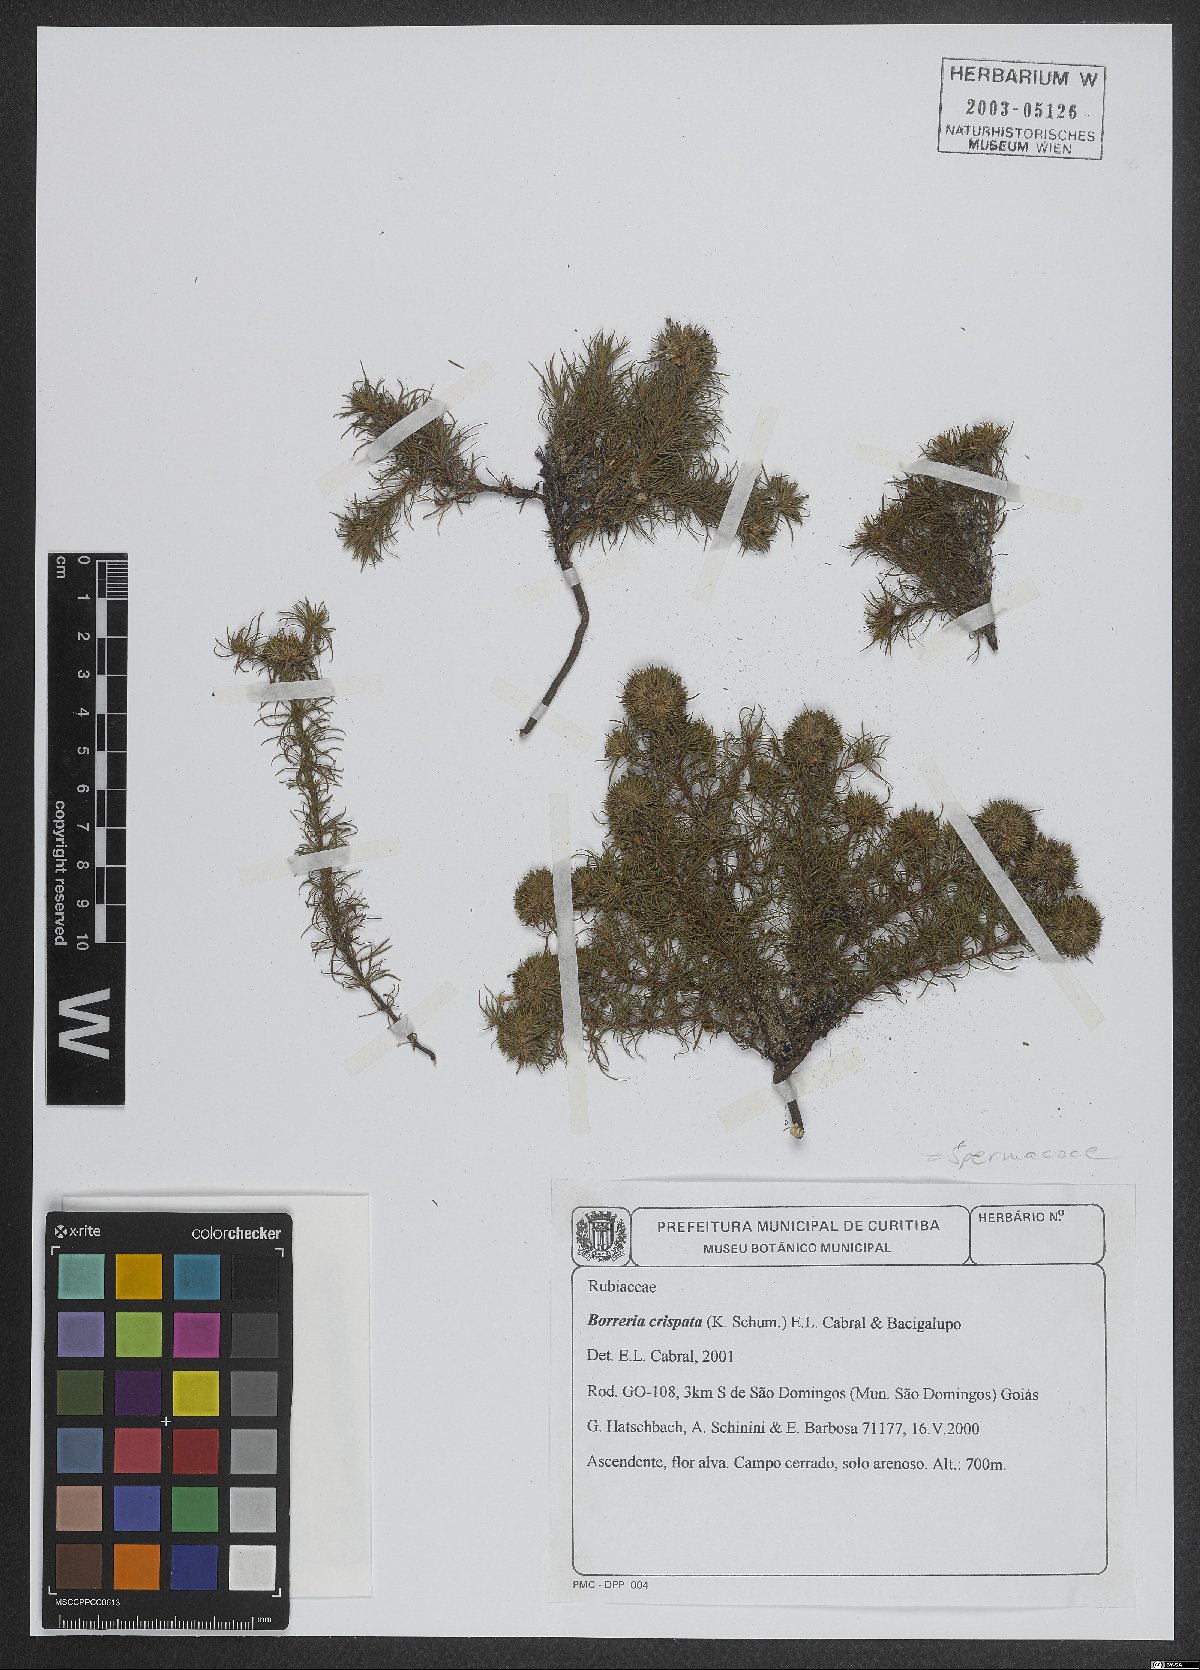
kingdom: Plantae
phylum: Tracheophyta
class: Magnoliopsida
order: Gentianales
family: Rubiaceae
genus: Spermacoce
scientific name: Spermacoce crispata
